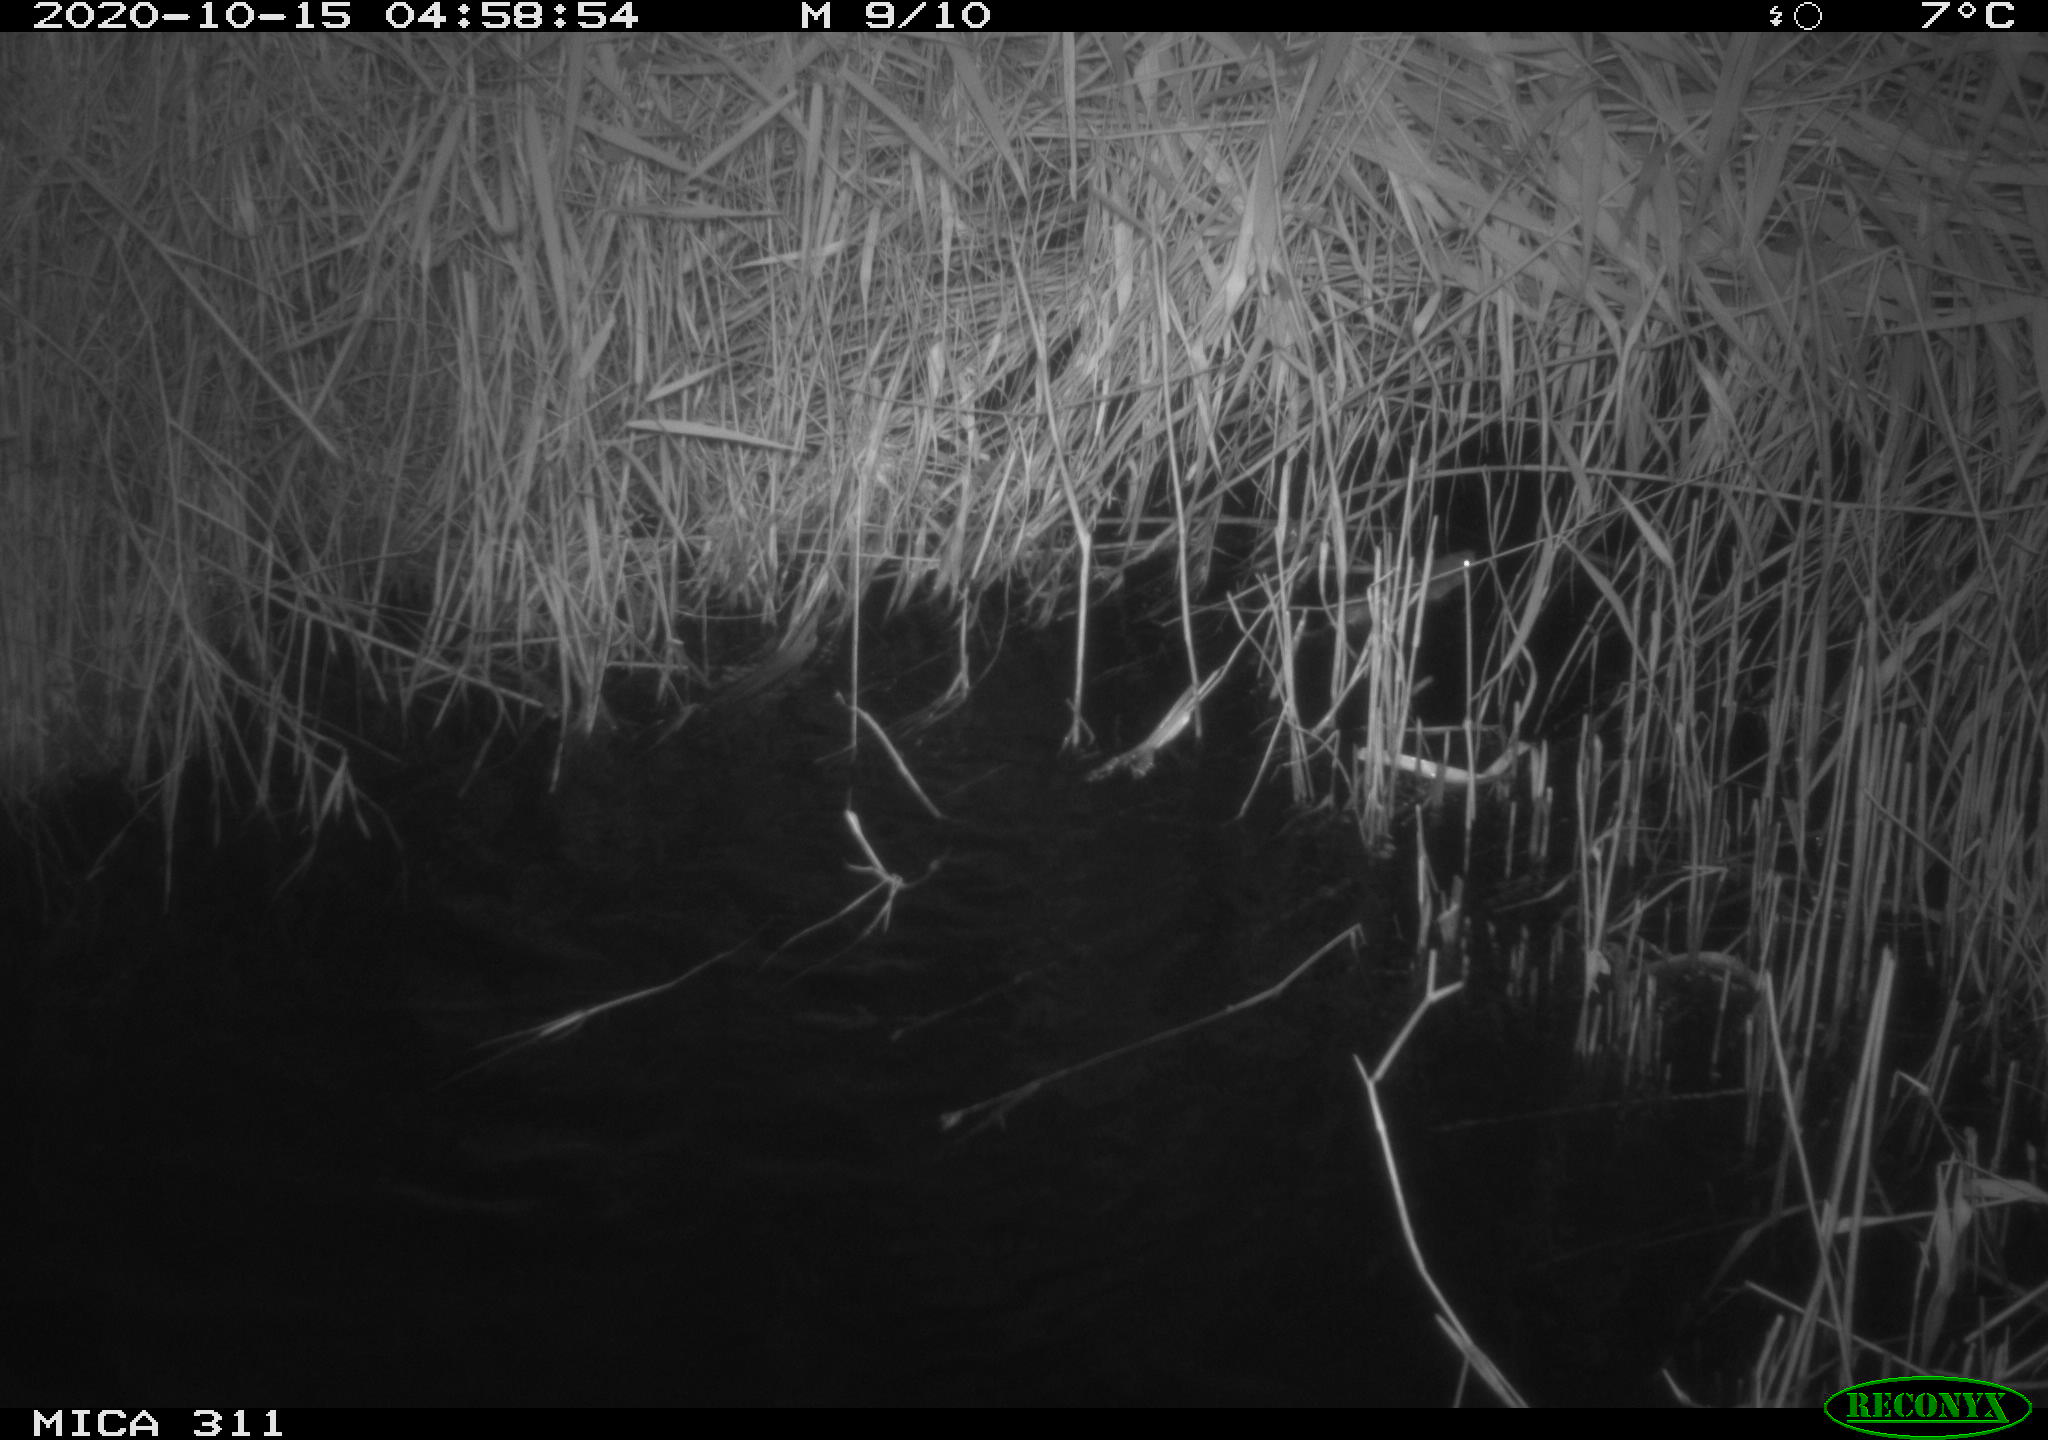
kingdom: Animalia
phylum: Chordata
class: Mammalia
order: Rodentia
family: Muridae
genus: Rattus
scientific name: Rattus norvegicus
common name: Brown rat
